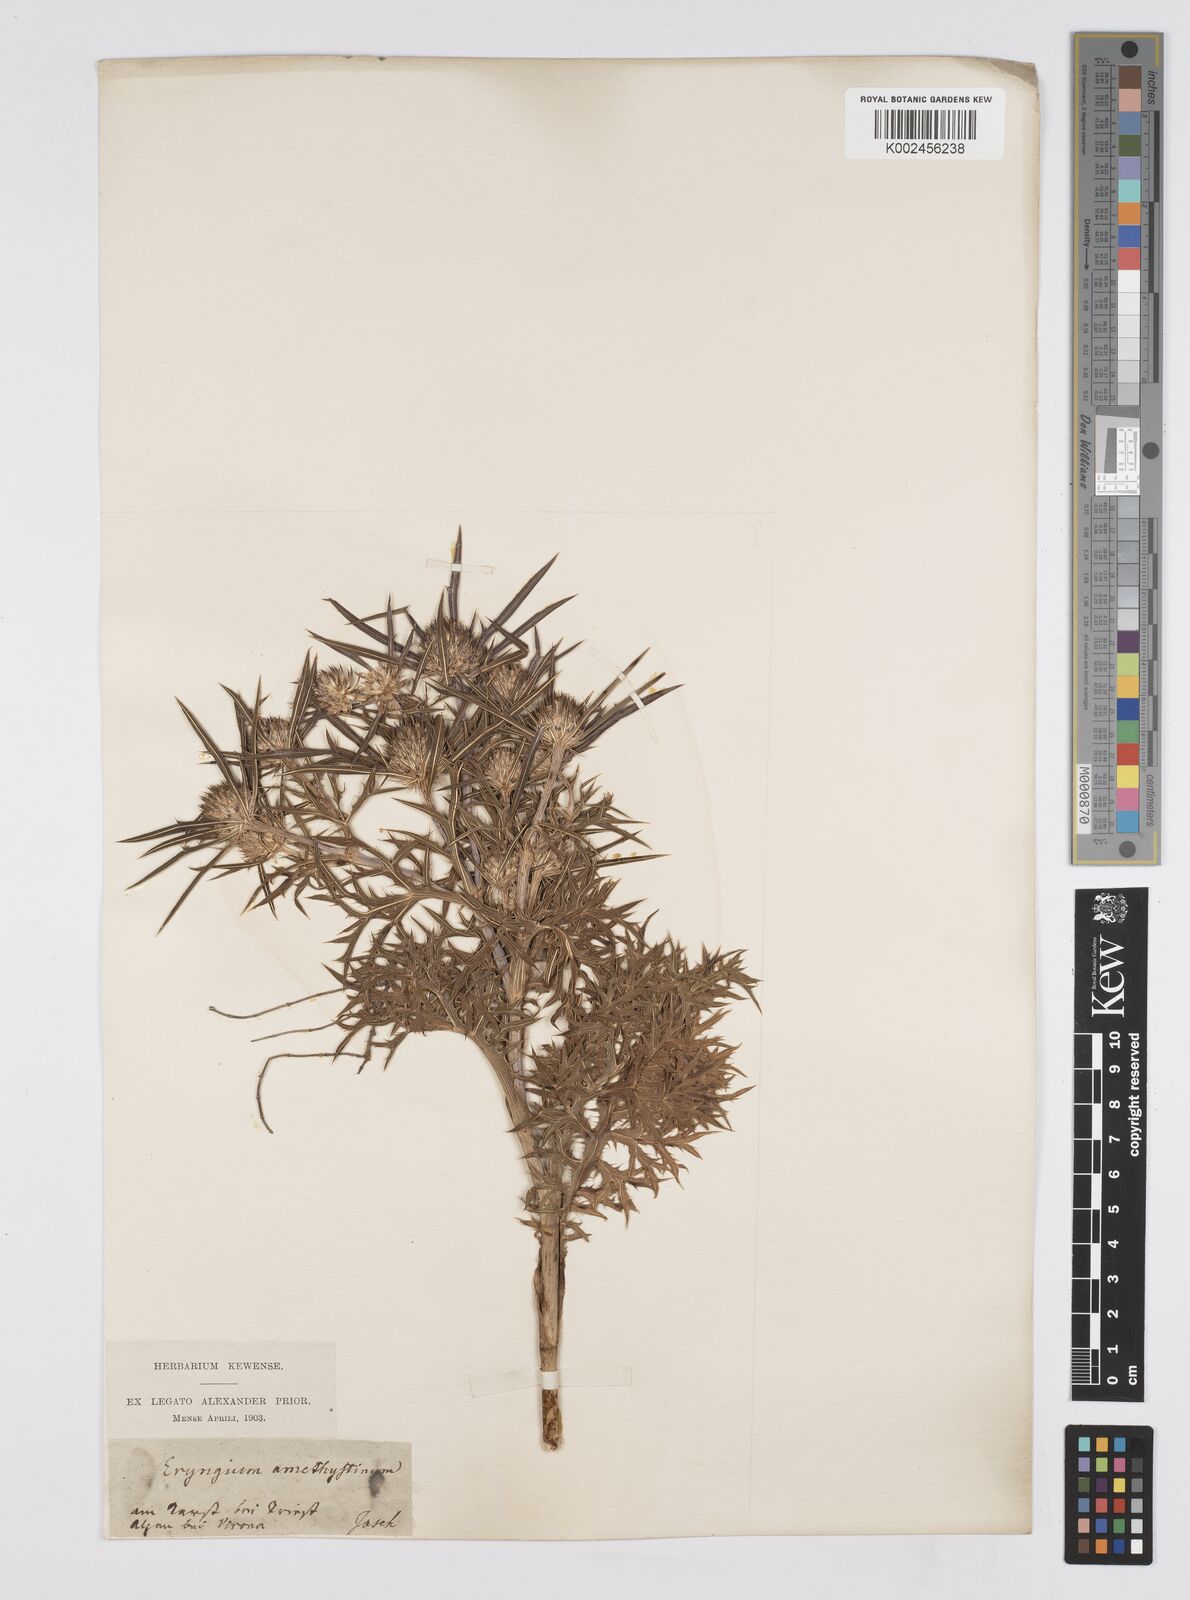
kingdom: Plantae
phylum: Tracheophyta
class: Magnoliopsida
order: Apiales
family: Apiaceae
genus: Eryngium
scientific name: Eryngium amethystinum
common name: Amethyst eryngo
